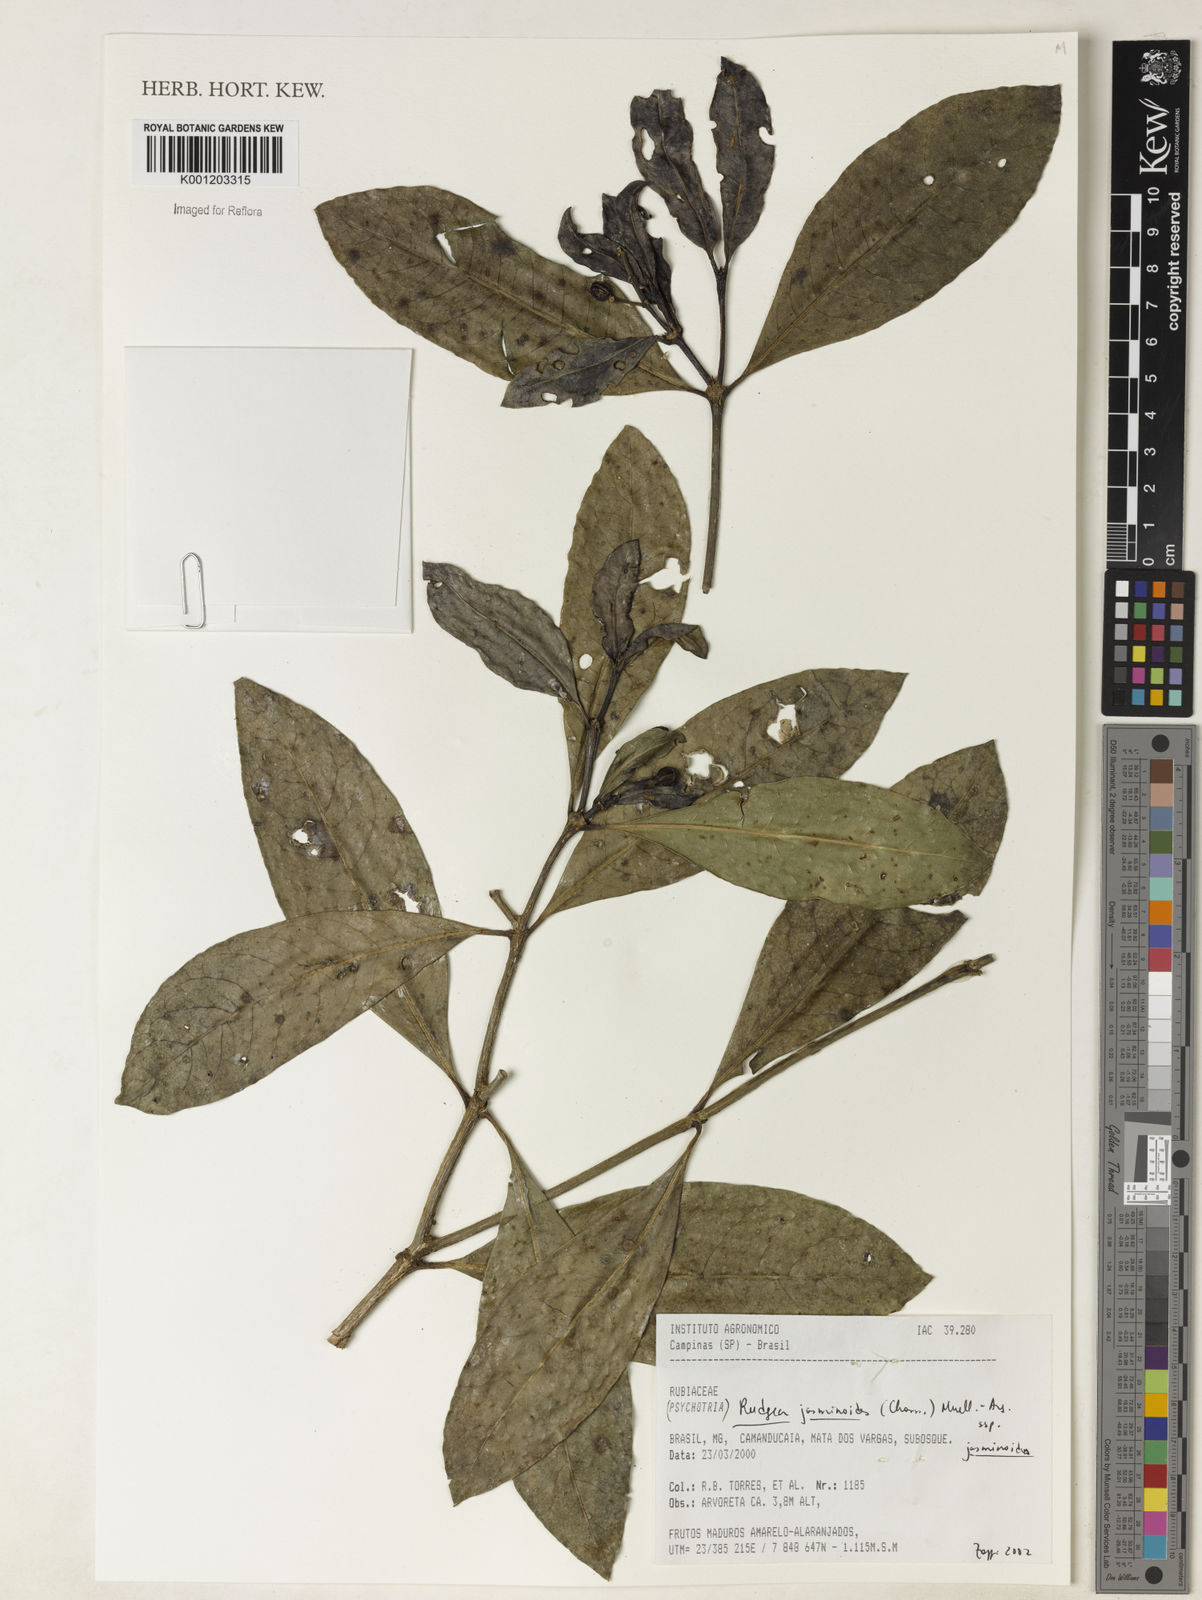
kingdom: Plantae
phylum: Tracheophyta
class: Magnoliopsida
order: Gentianales
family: Rubiaceae
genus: Rudgea
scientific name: Rudgea
